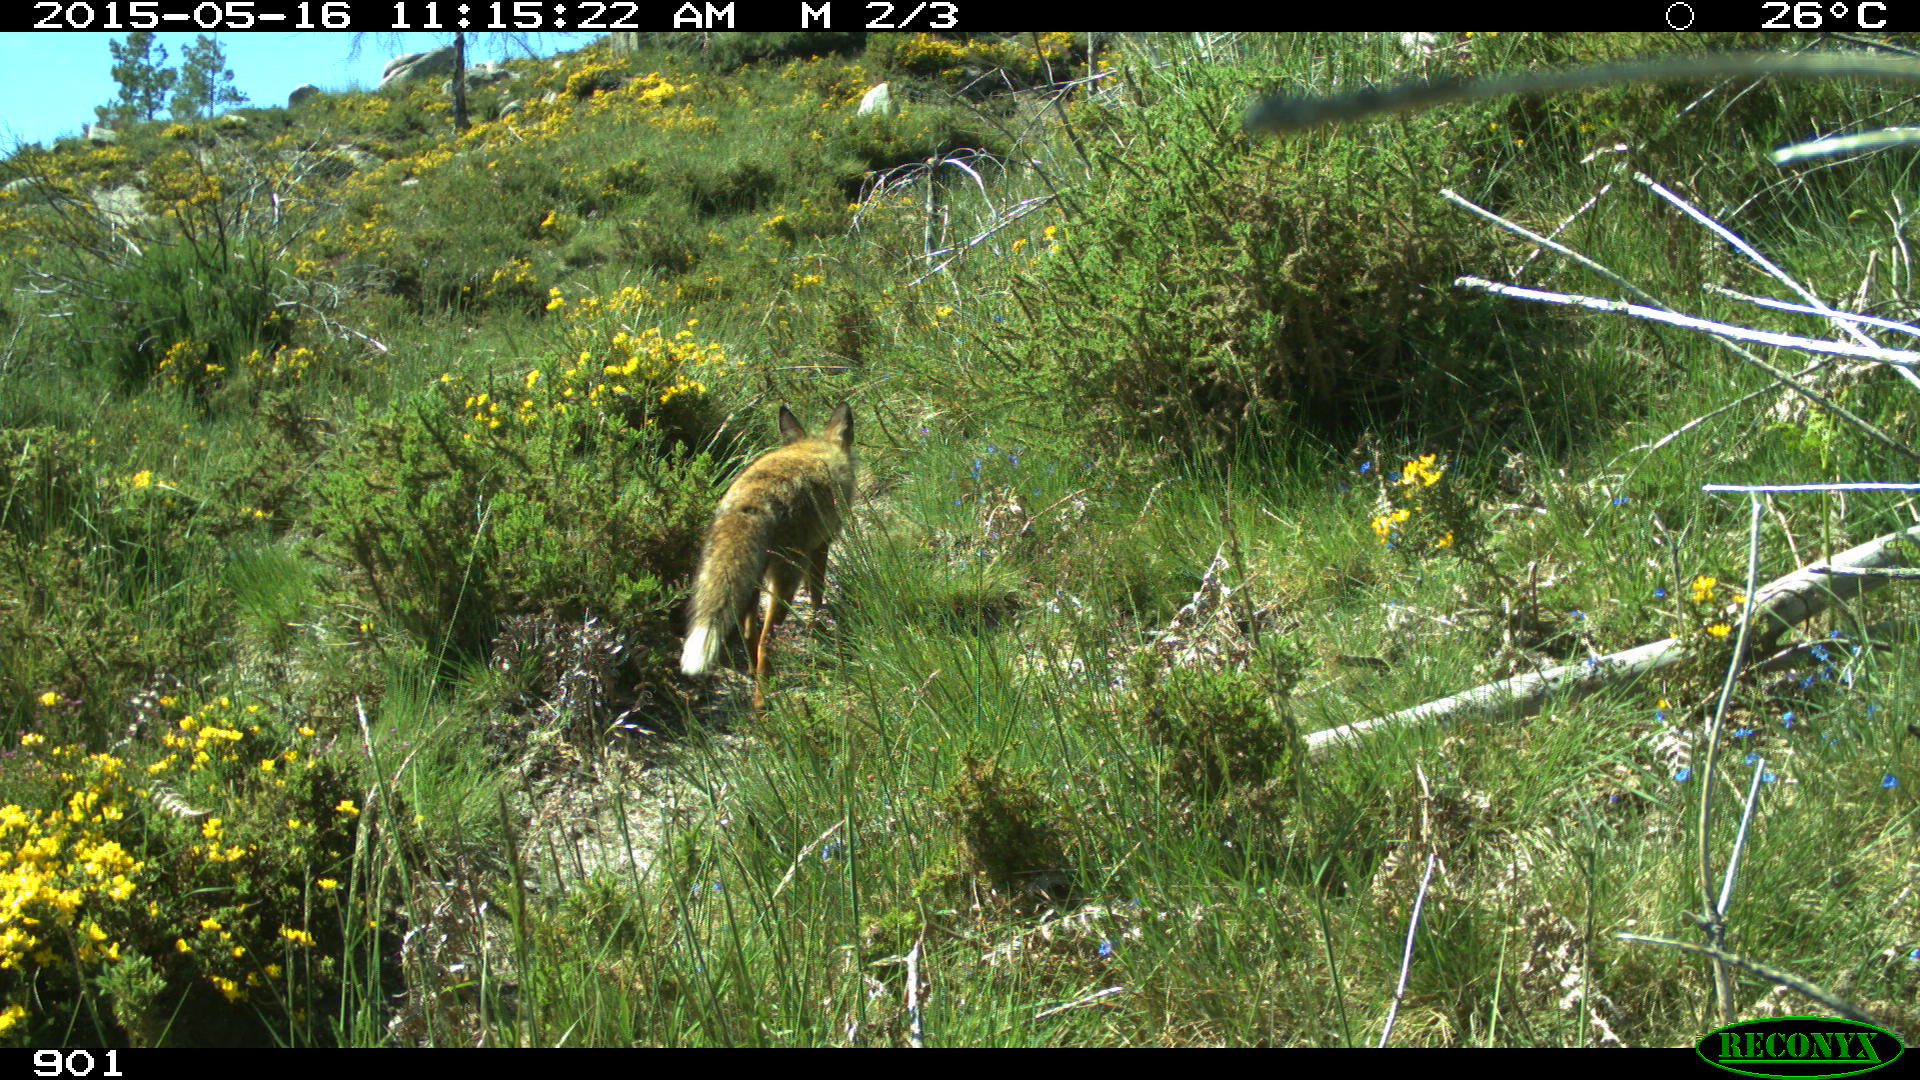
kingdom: Animalia
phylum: Chordata
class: Mammalia
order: Carnivora
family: Canidae
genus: Vulpes
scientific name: Vulpes vulpes
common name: Red fox
